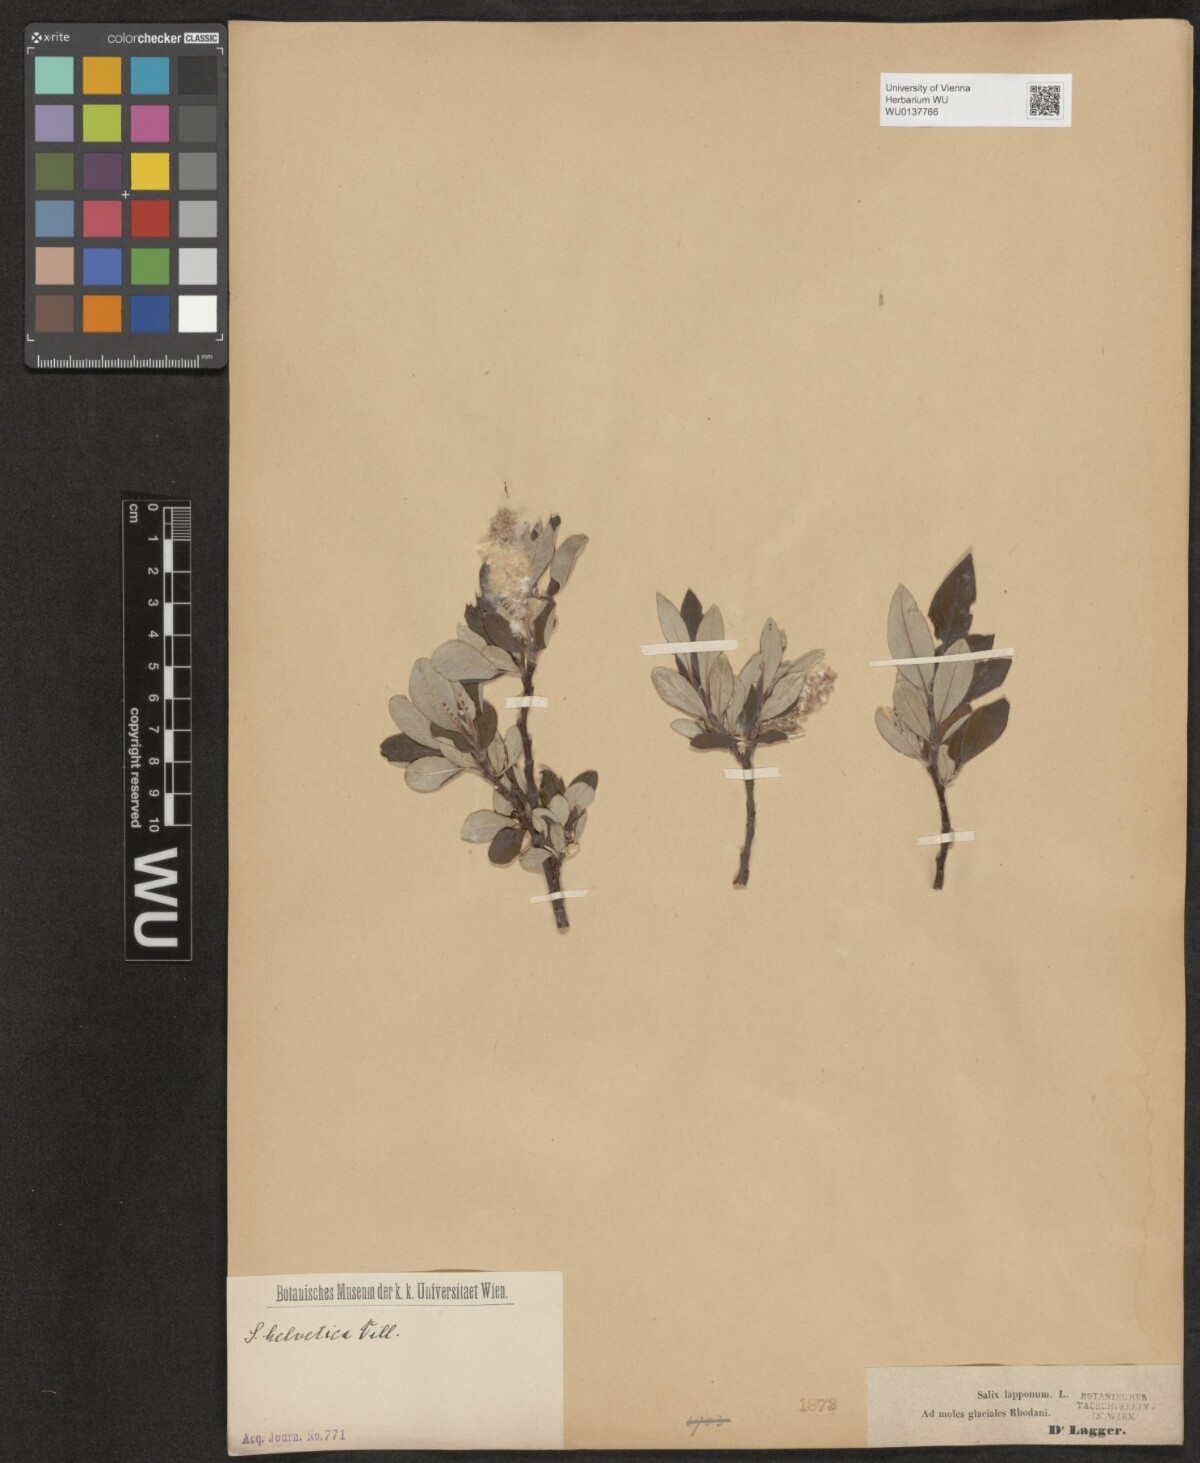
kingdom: Plantae
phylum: Tracheophyta
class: Magnoliopsida
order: Malpighiales
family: Salicaceae
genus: Salix
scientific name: Salix helvetica
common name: Swiss willow
